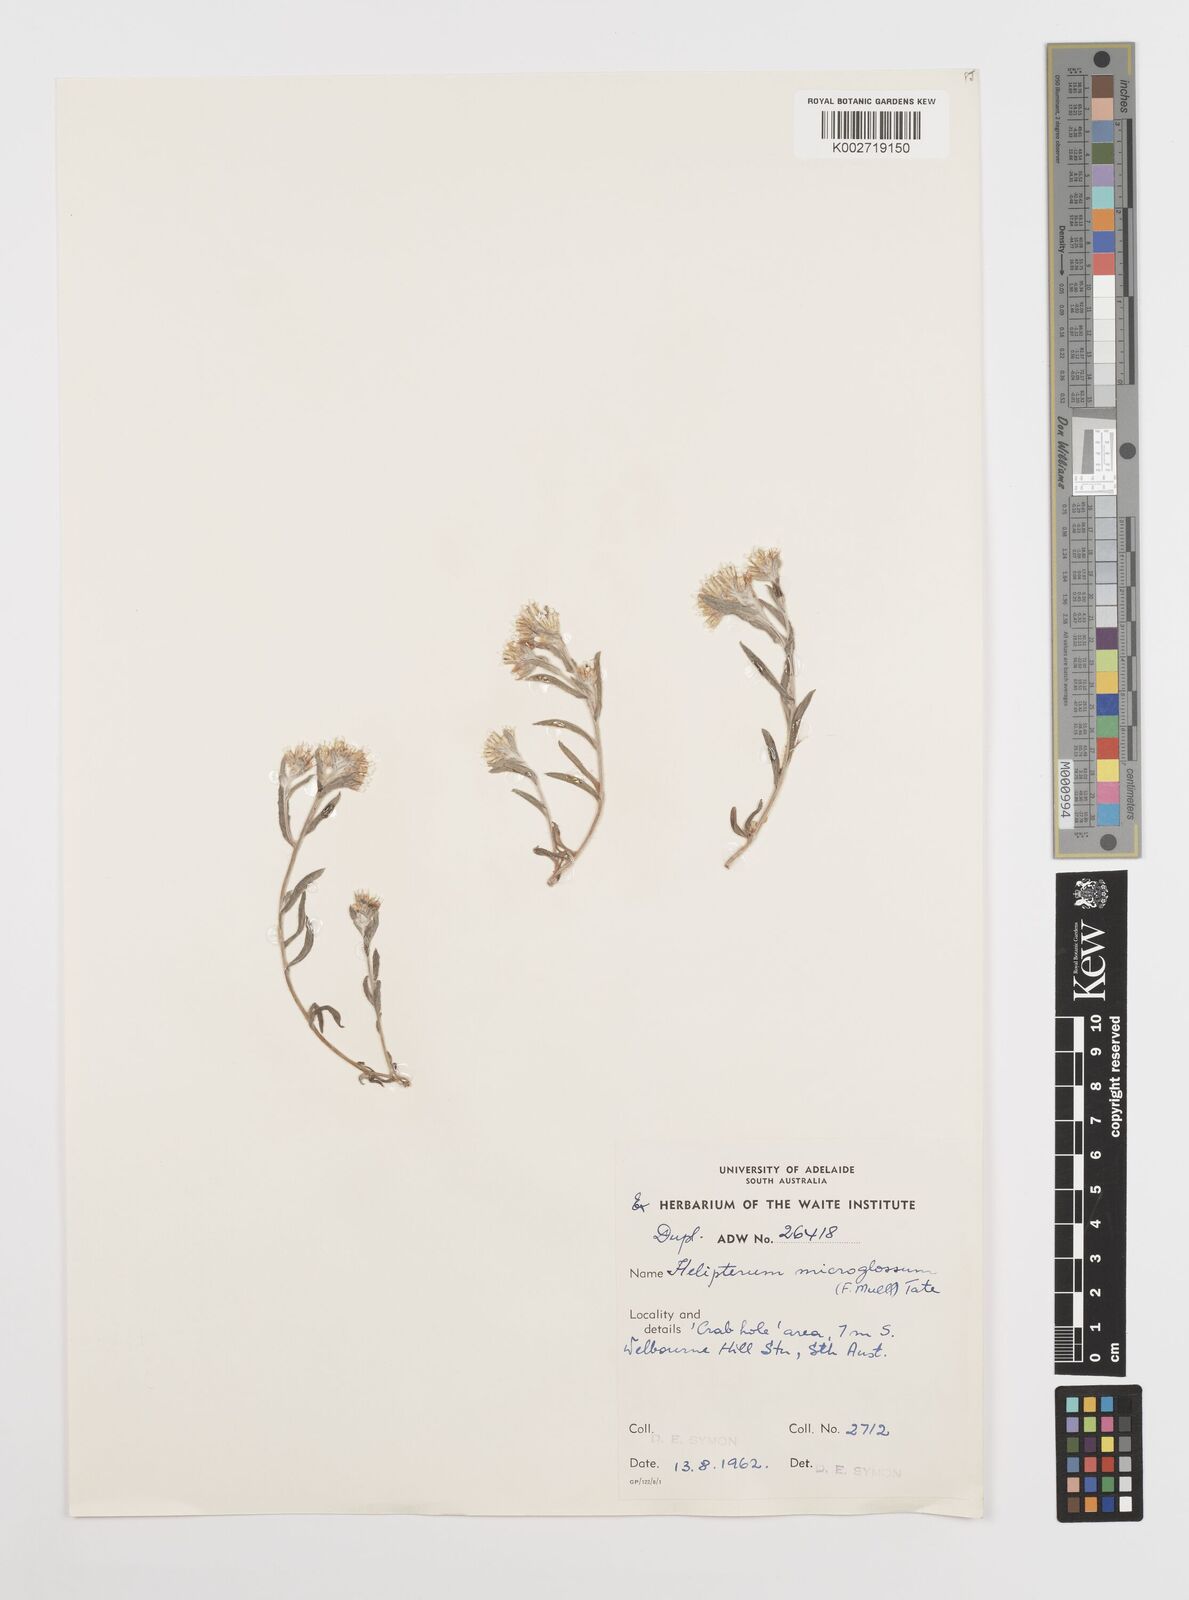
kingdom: Plantae
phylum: Tracheophyta
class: Magnoliopsida
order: Asterales
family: Asteraceae
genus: Rhodanthe
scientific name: Rhodanthe microglossa
